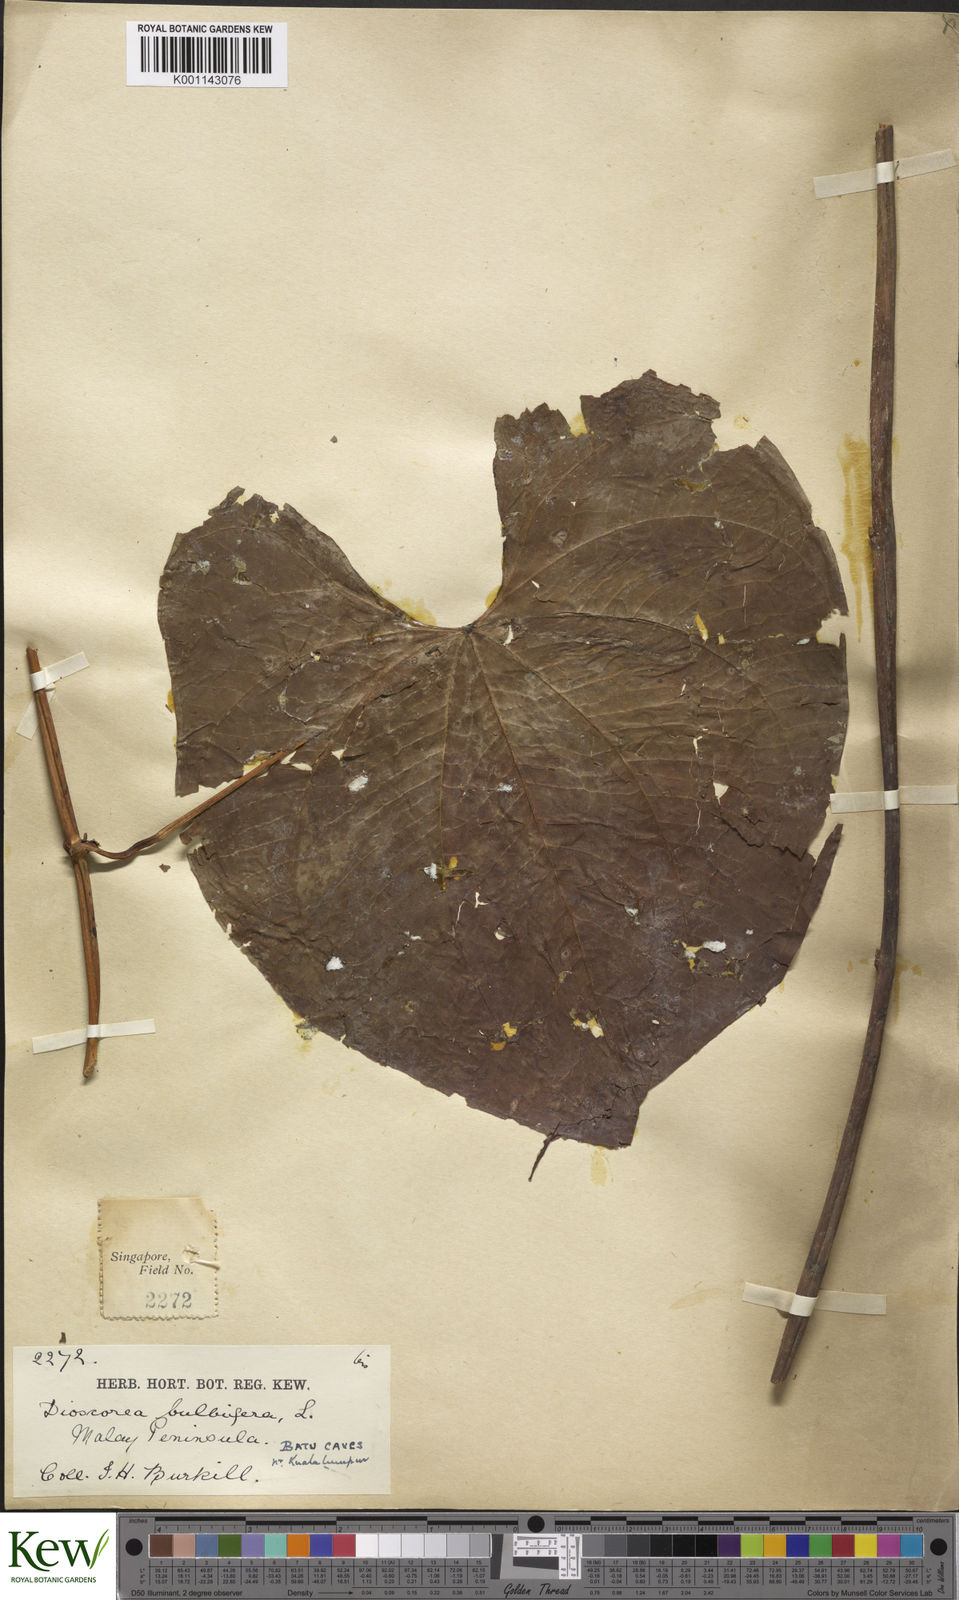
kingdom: Plantae
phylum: Tracheophyta
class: Liliopsida
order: Dioscoreales
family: Dioscoreaceae
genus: Dioscorea
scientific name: Dioscorea bulbifera
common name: Air yam
